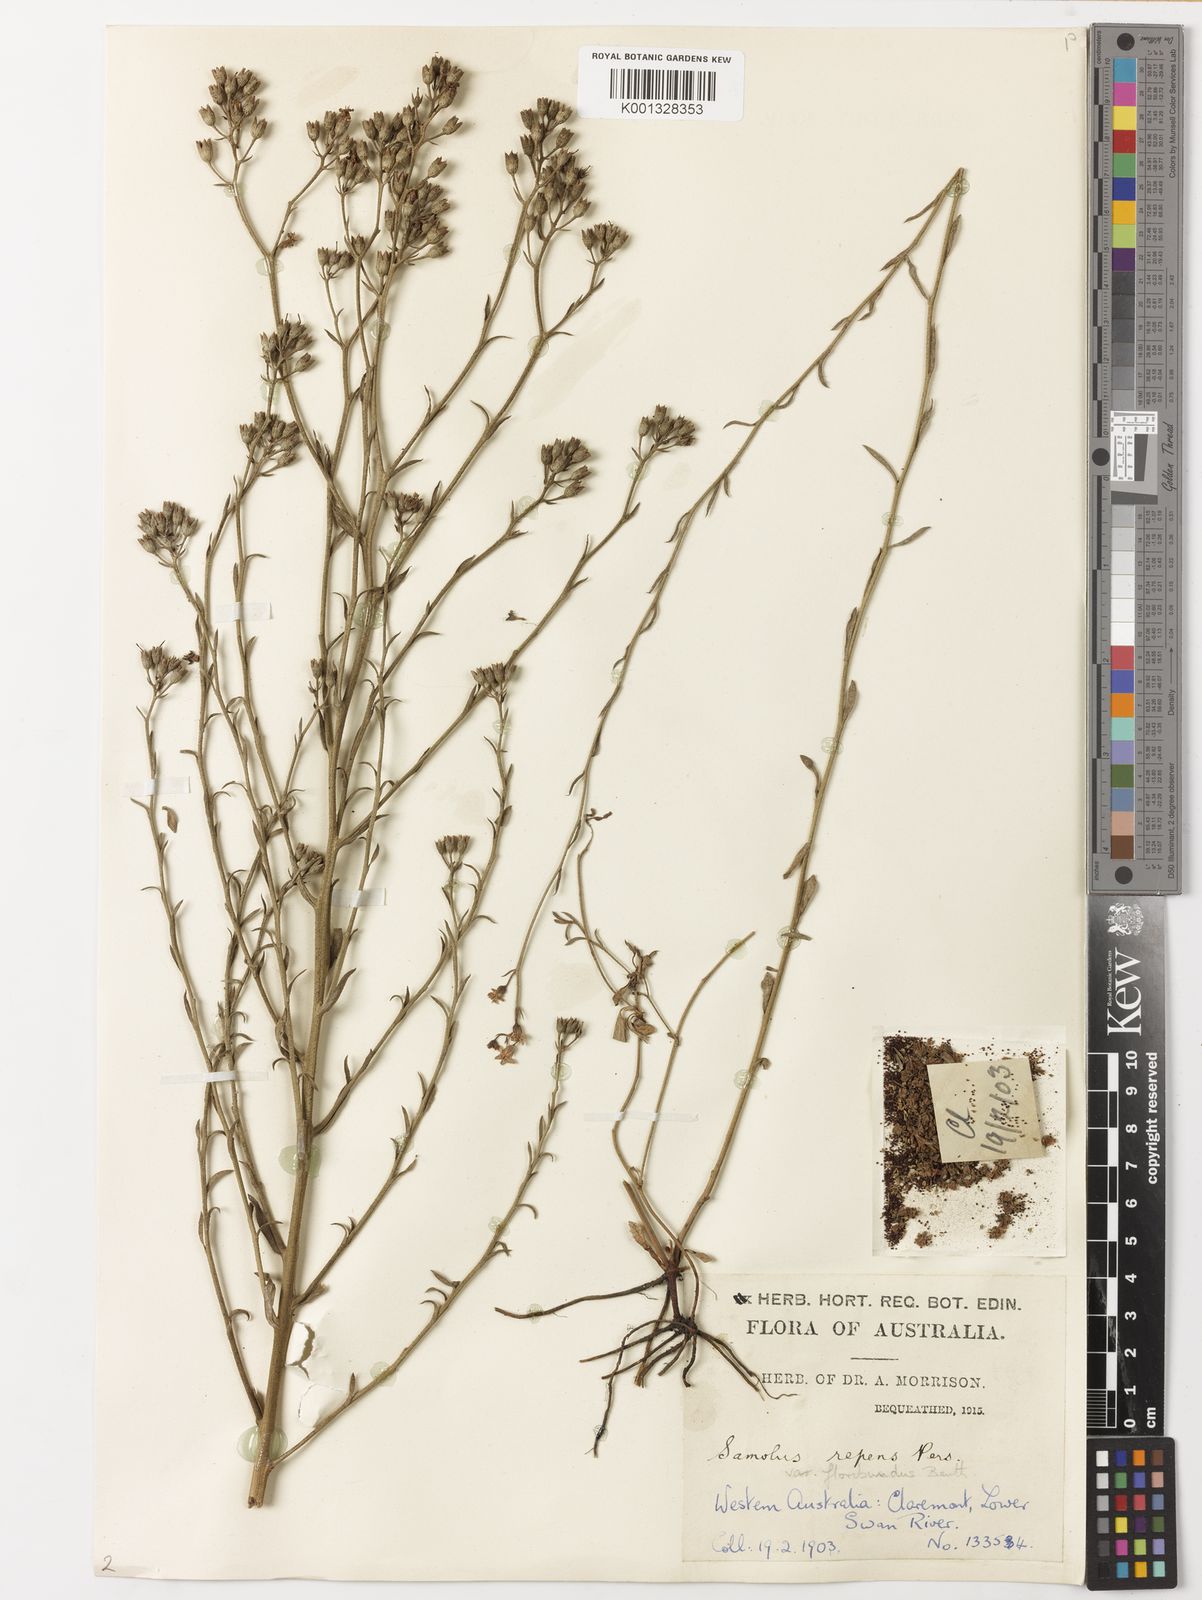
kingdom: Plantae
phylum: Tracheophyta
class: Magnoliopsida
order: Ericales
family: Primulaceae
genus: Samolus
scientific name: Samolus
